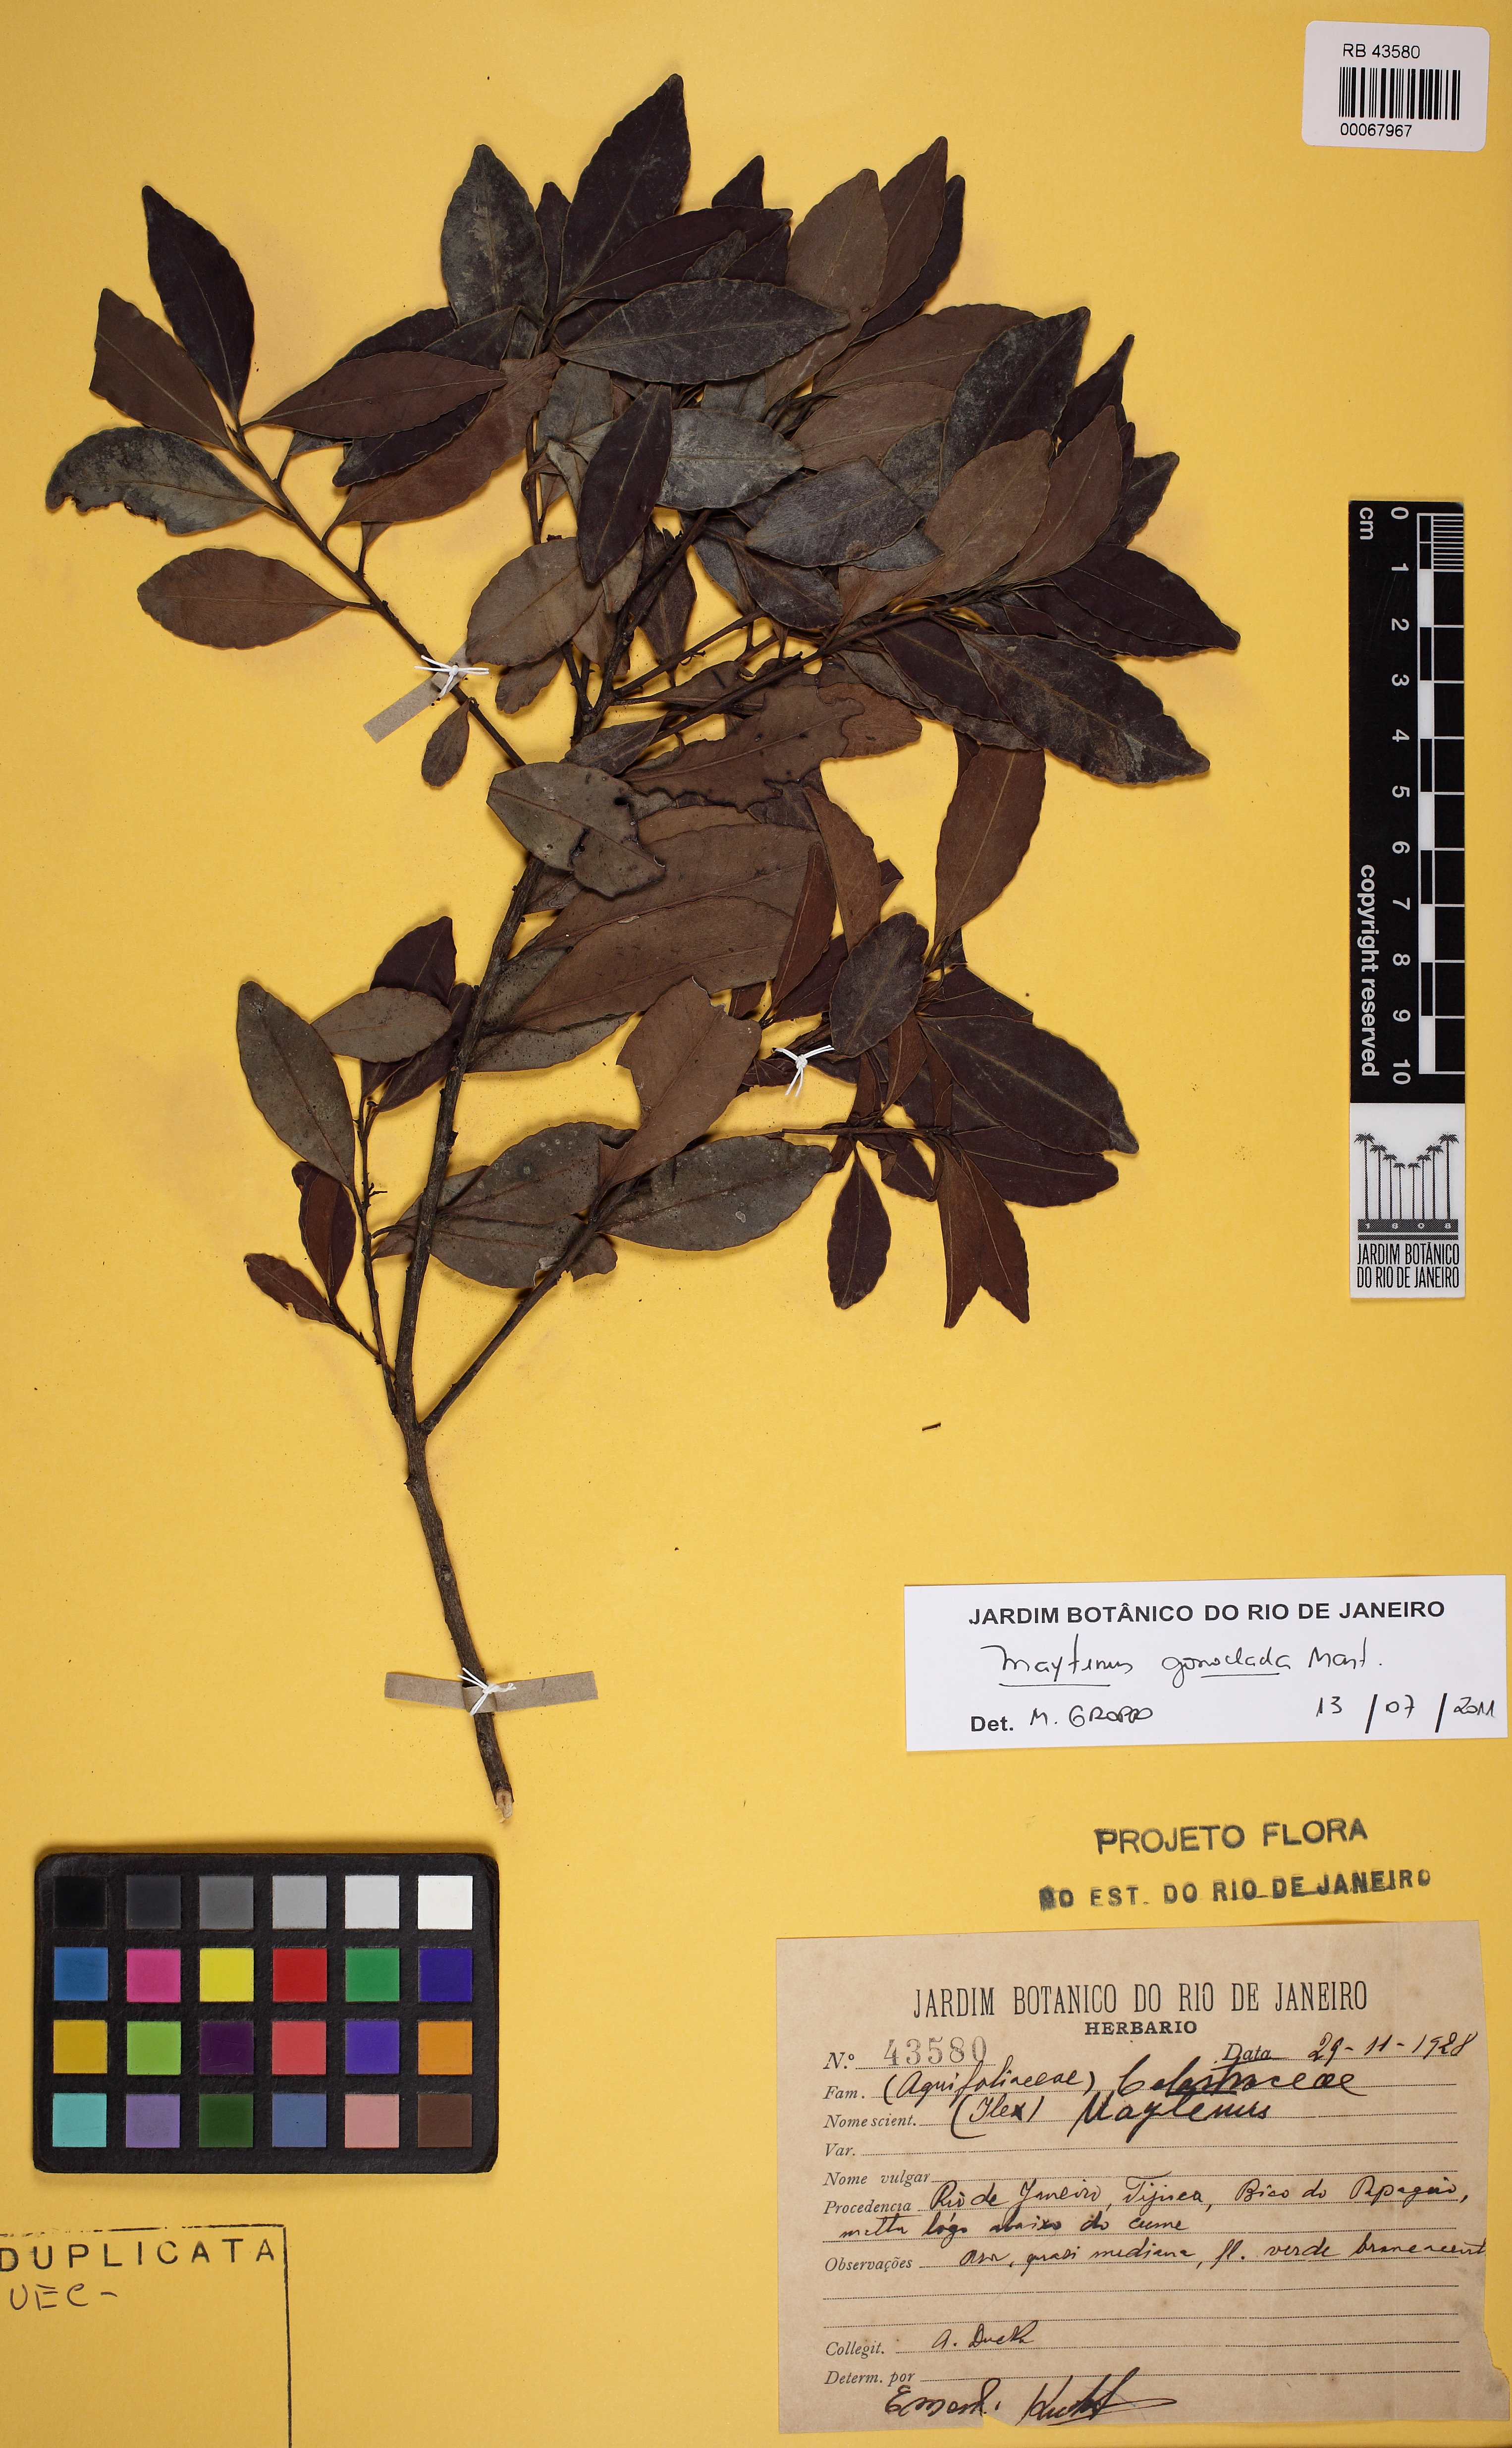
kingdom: Plantae
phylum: Tracheophyta
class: Magnoliopsida
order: Celastrales
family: Celastraceae
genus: Monteverdia
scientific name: Monteverdia gonoclada
